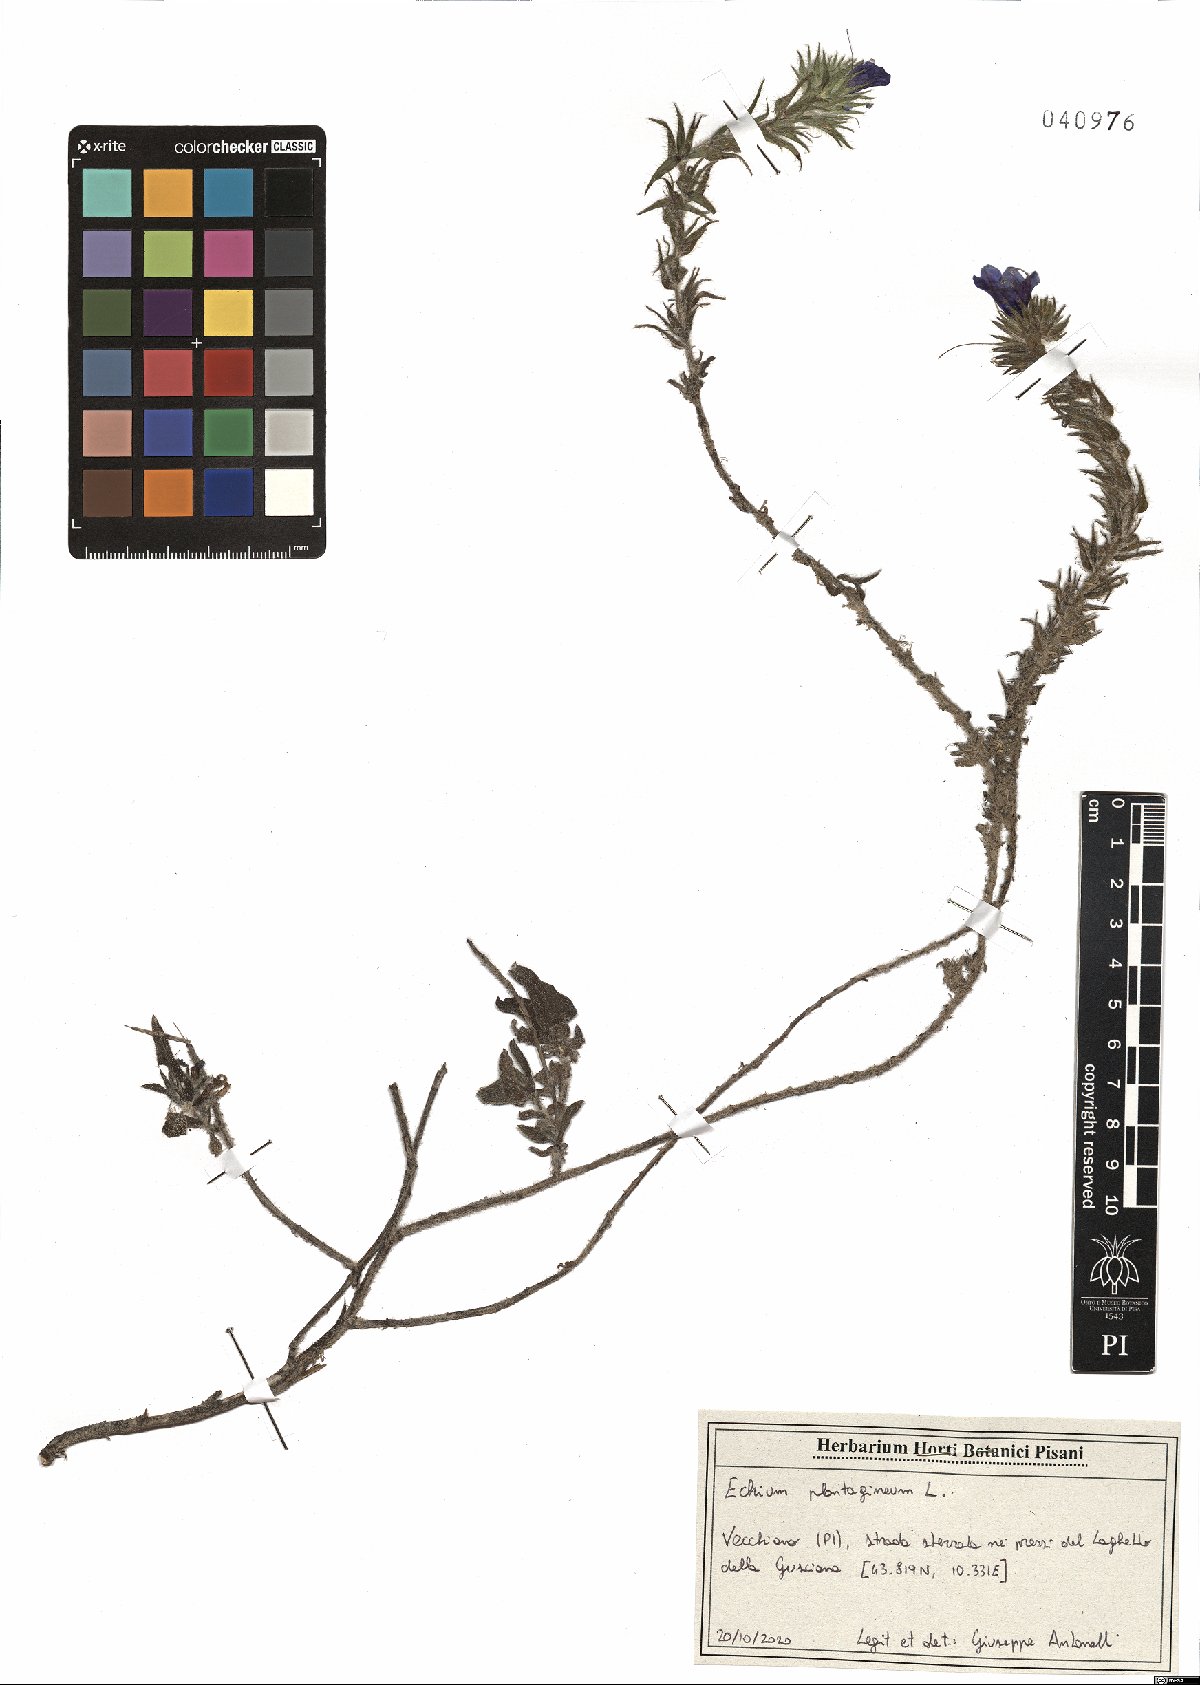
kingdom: Plantae
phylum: Tracheophyta
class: Magnoliopsida
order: Boraginales
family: Boraginaceae
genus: Echium
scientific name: Echium plantagineum
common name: Purple viper's-bugloss
